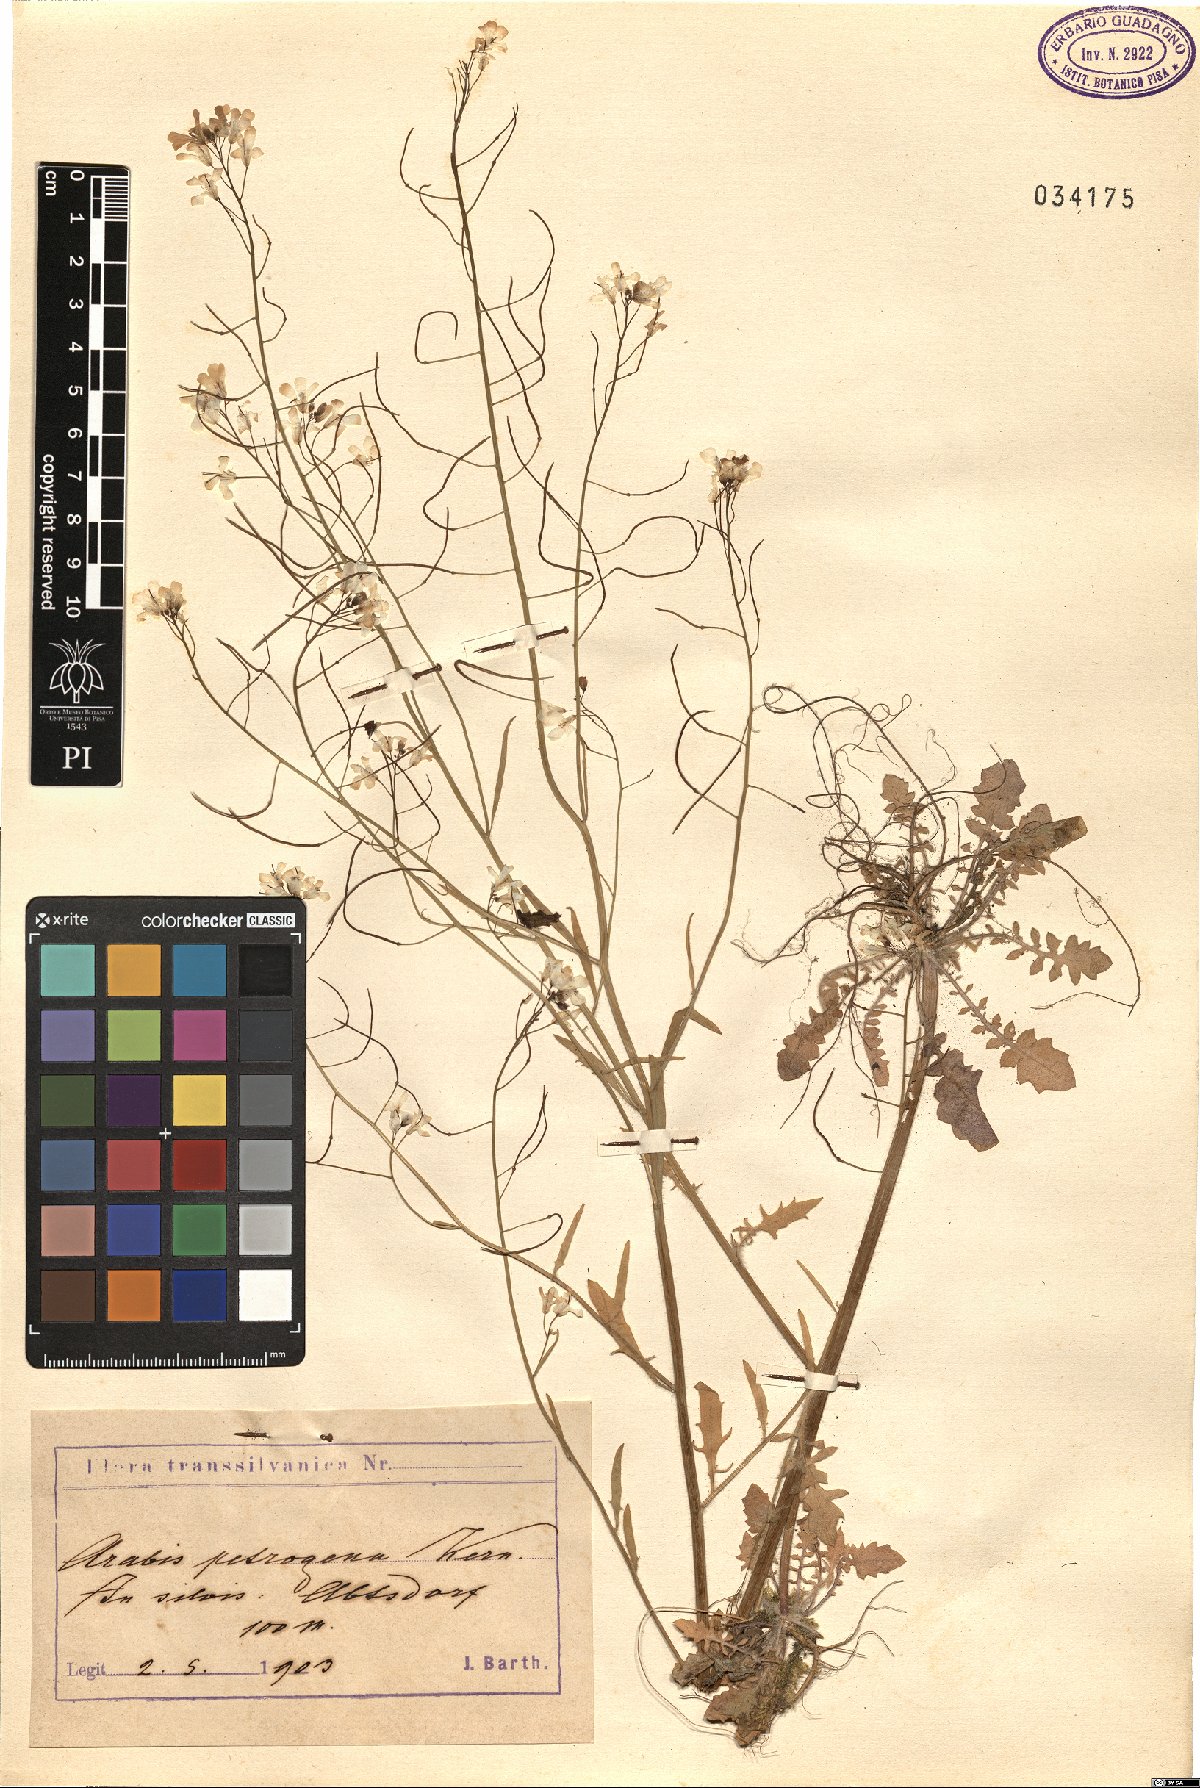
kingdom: Plantae
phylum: Tracheophyta
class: Magnoliopsida
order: Brassicales
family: Brassicaceae
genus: Arabidopsis
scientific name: Arabidopsis petrogena
